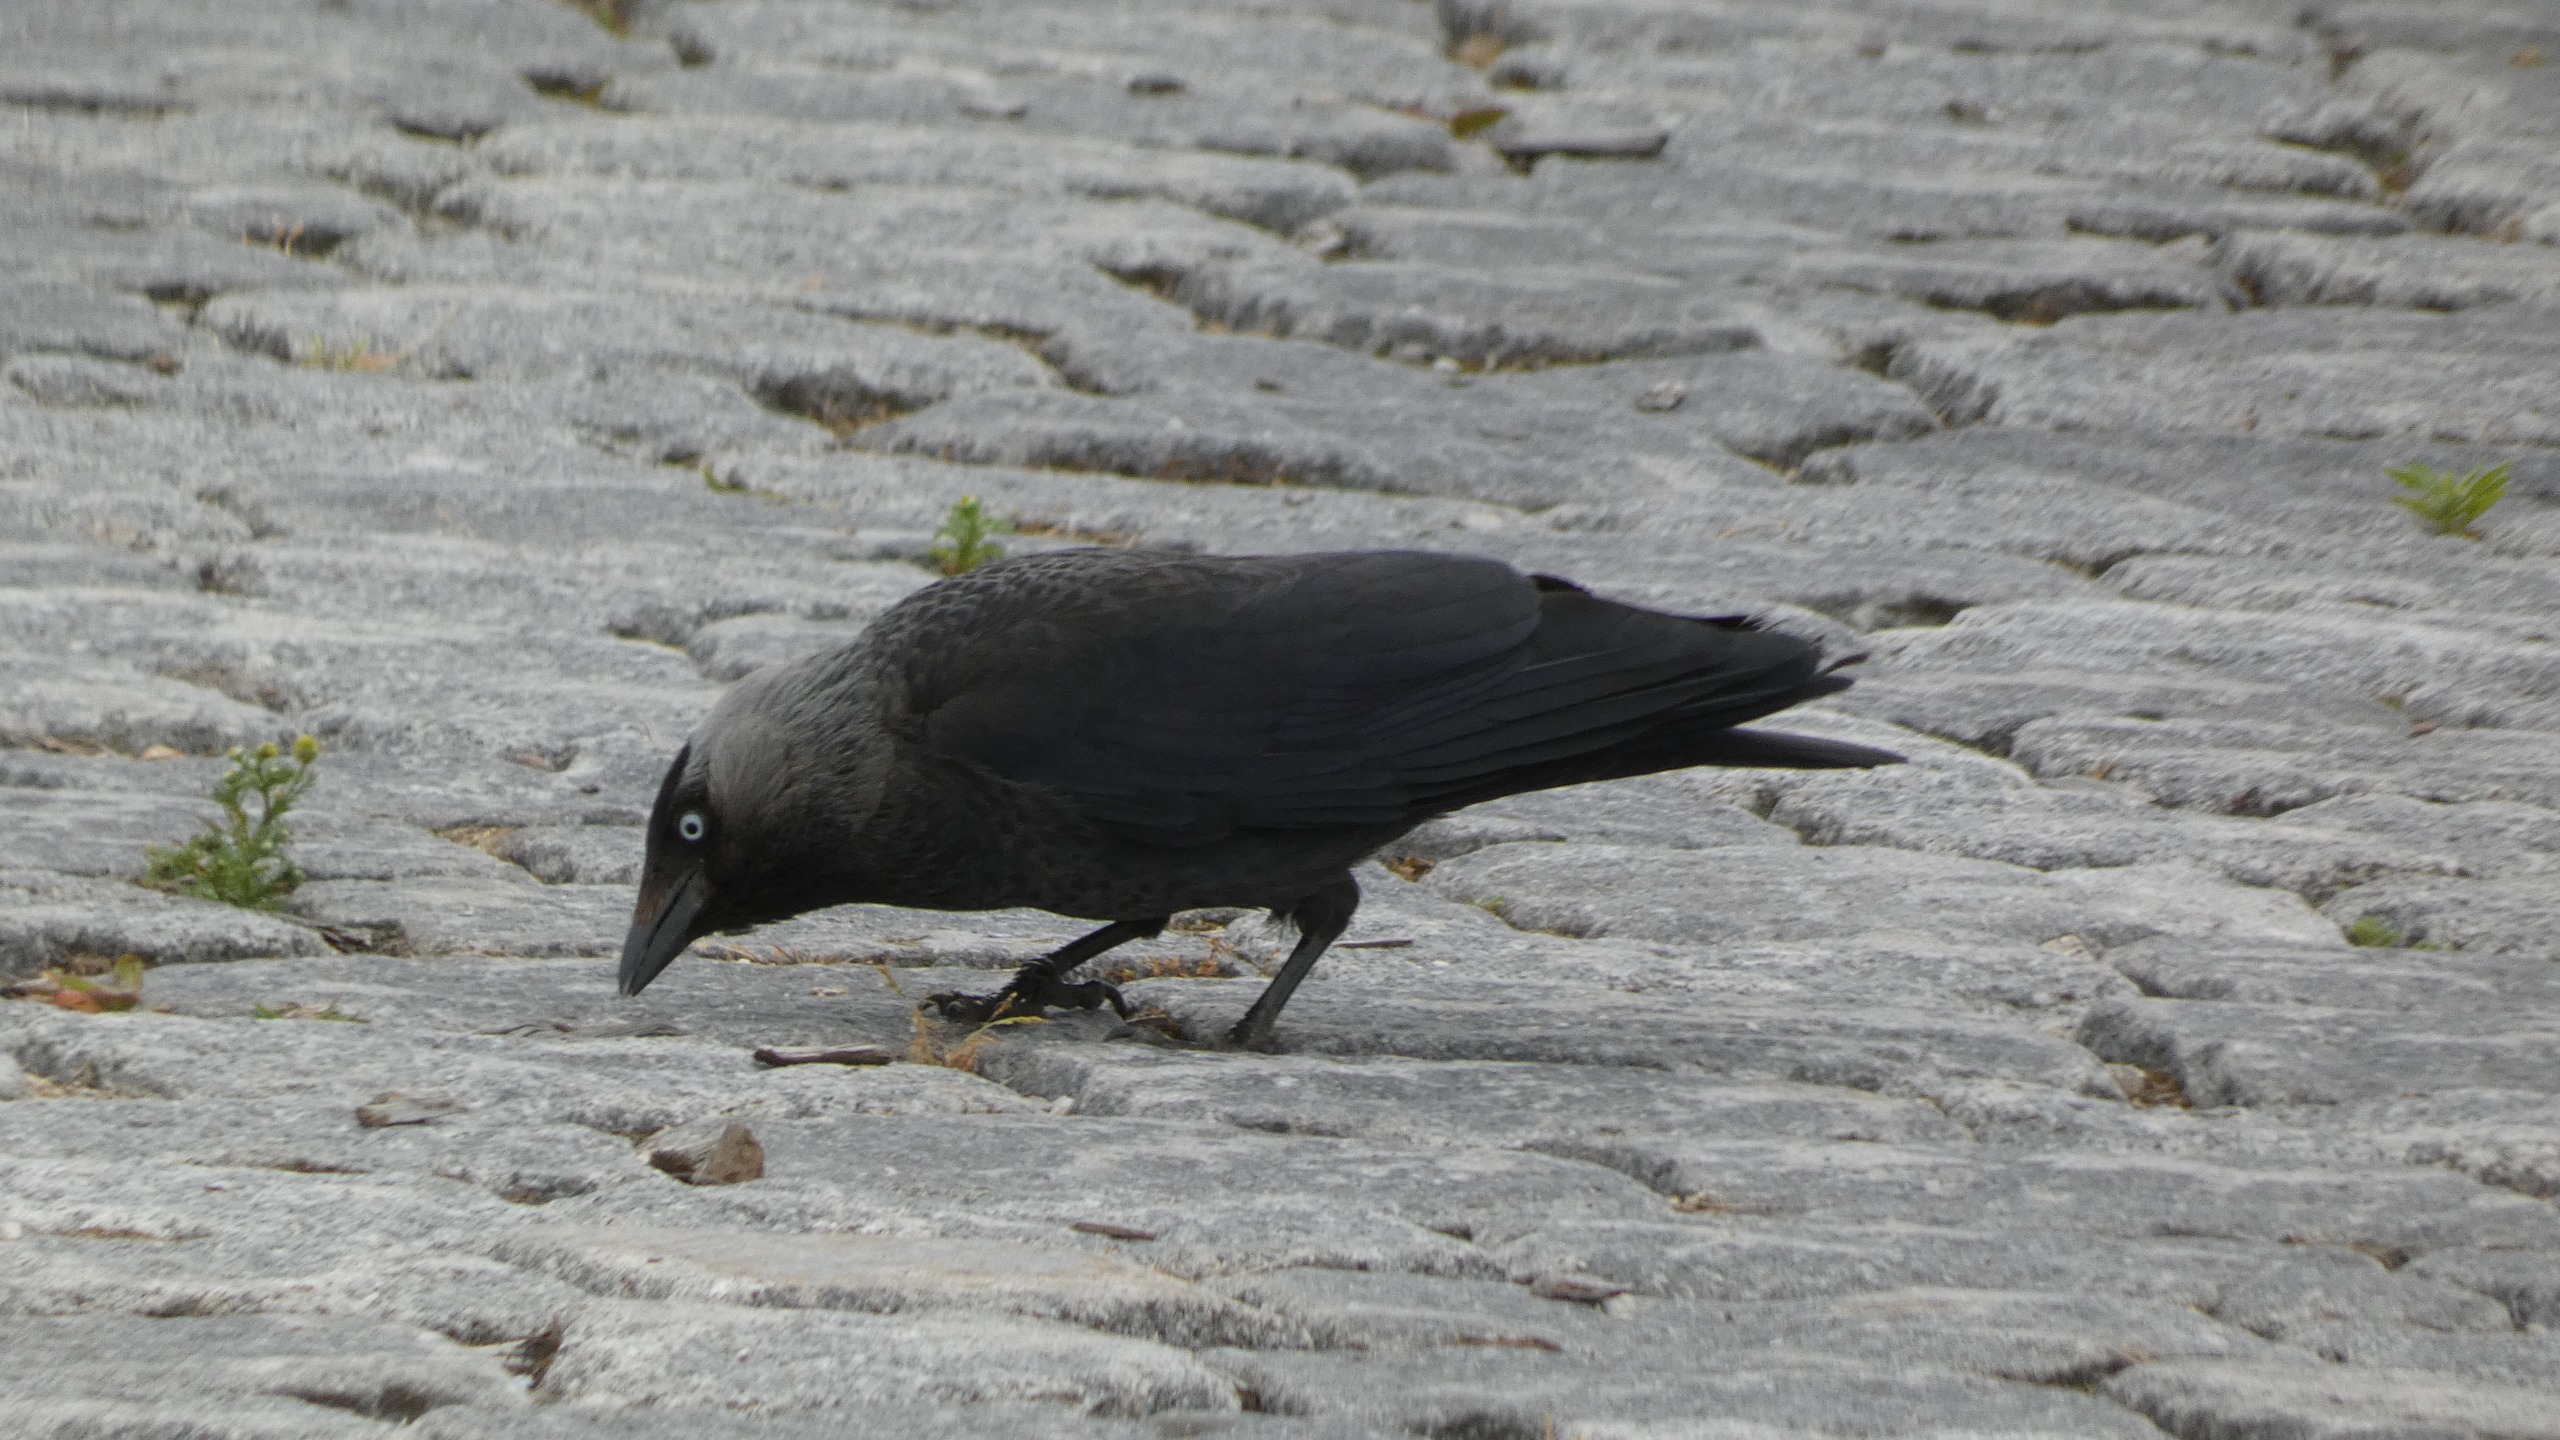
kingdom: Animalia
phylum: Chordata
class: Aves
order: Passeriformes
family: Corvidae
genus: Coloeus
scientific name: Coloeus monedula
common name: Allike
